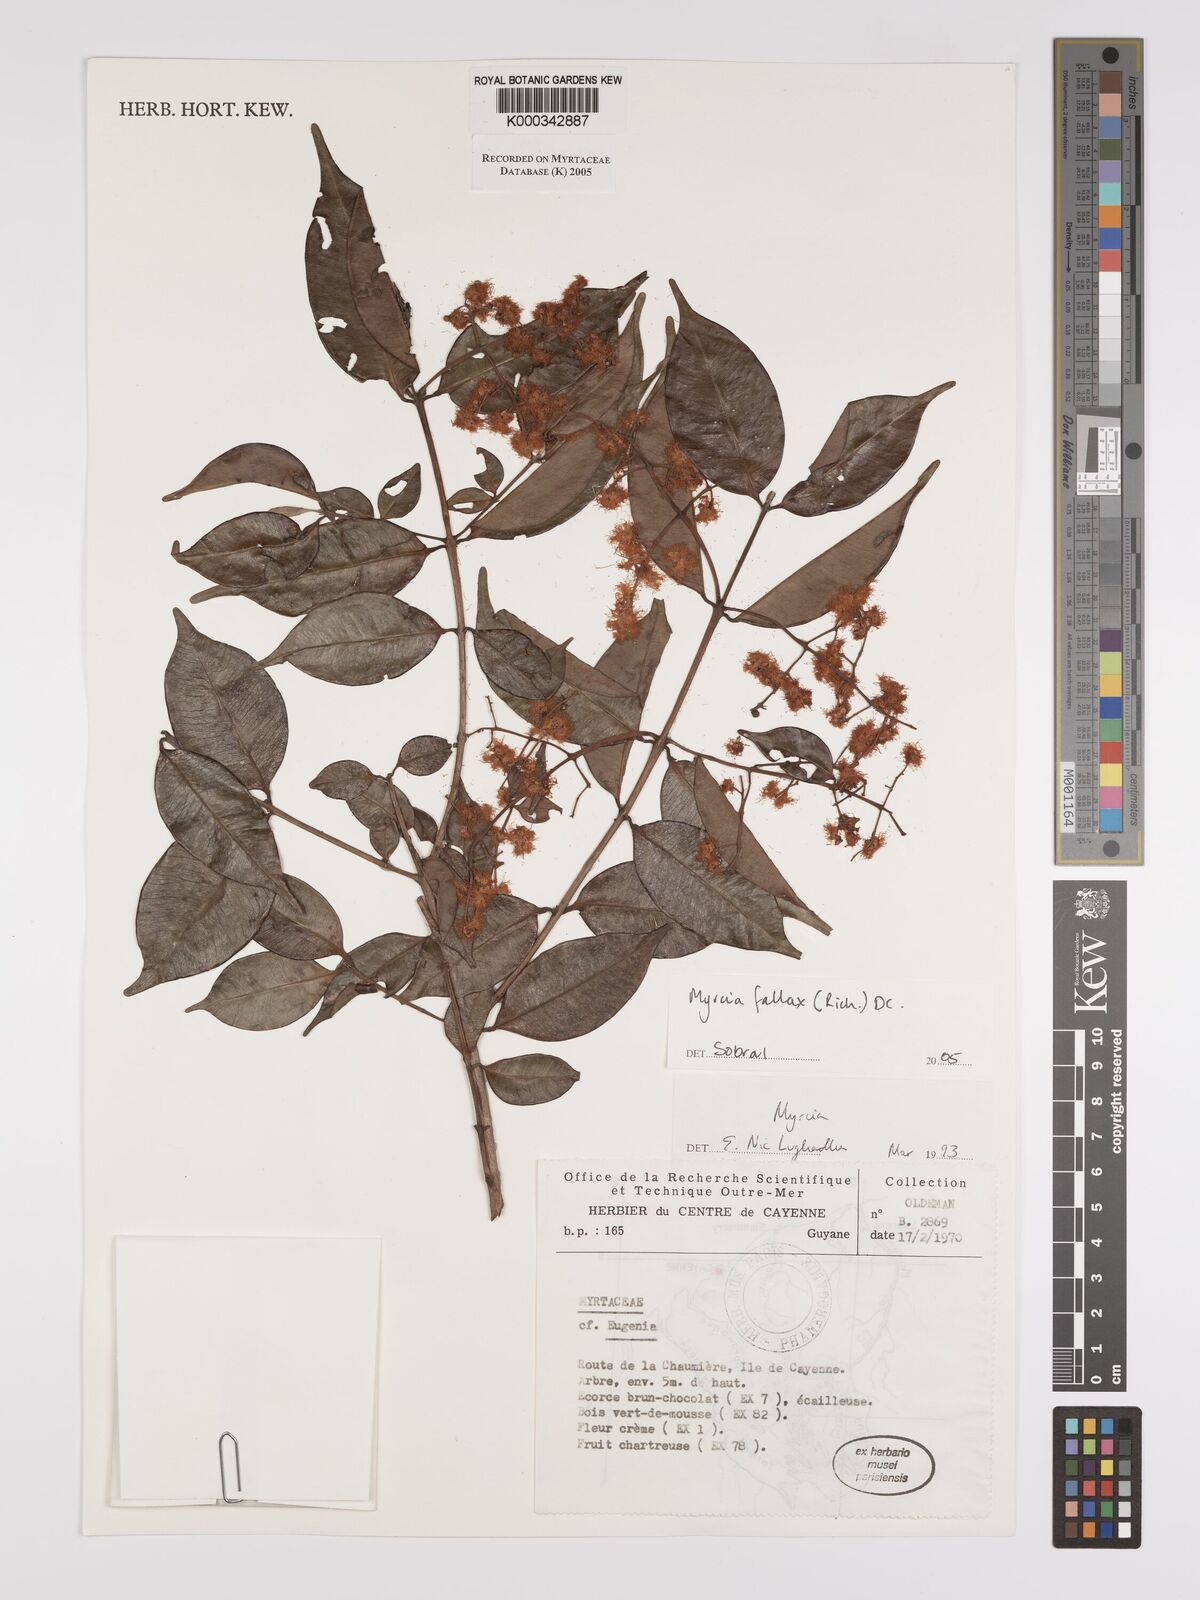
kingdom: Plantae
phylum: Tracheophyta
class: Magnoliopsida
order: Myrtales
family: Myrtaceae
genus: Myrcia
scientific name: Myrcia splendens
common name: Surinam cherry
